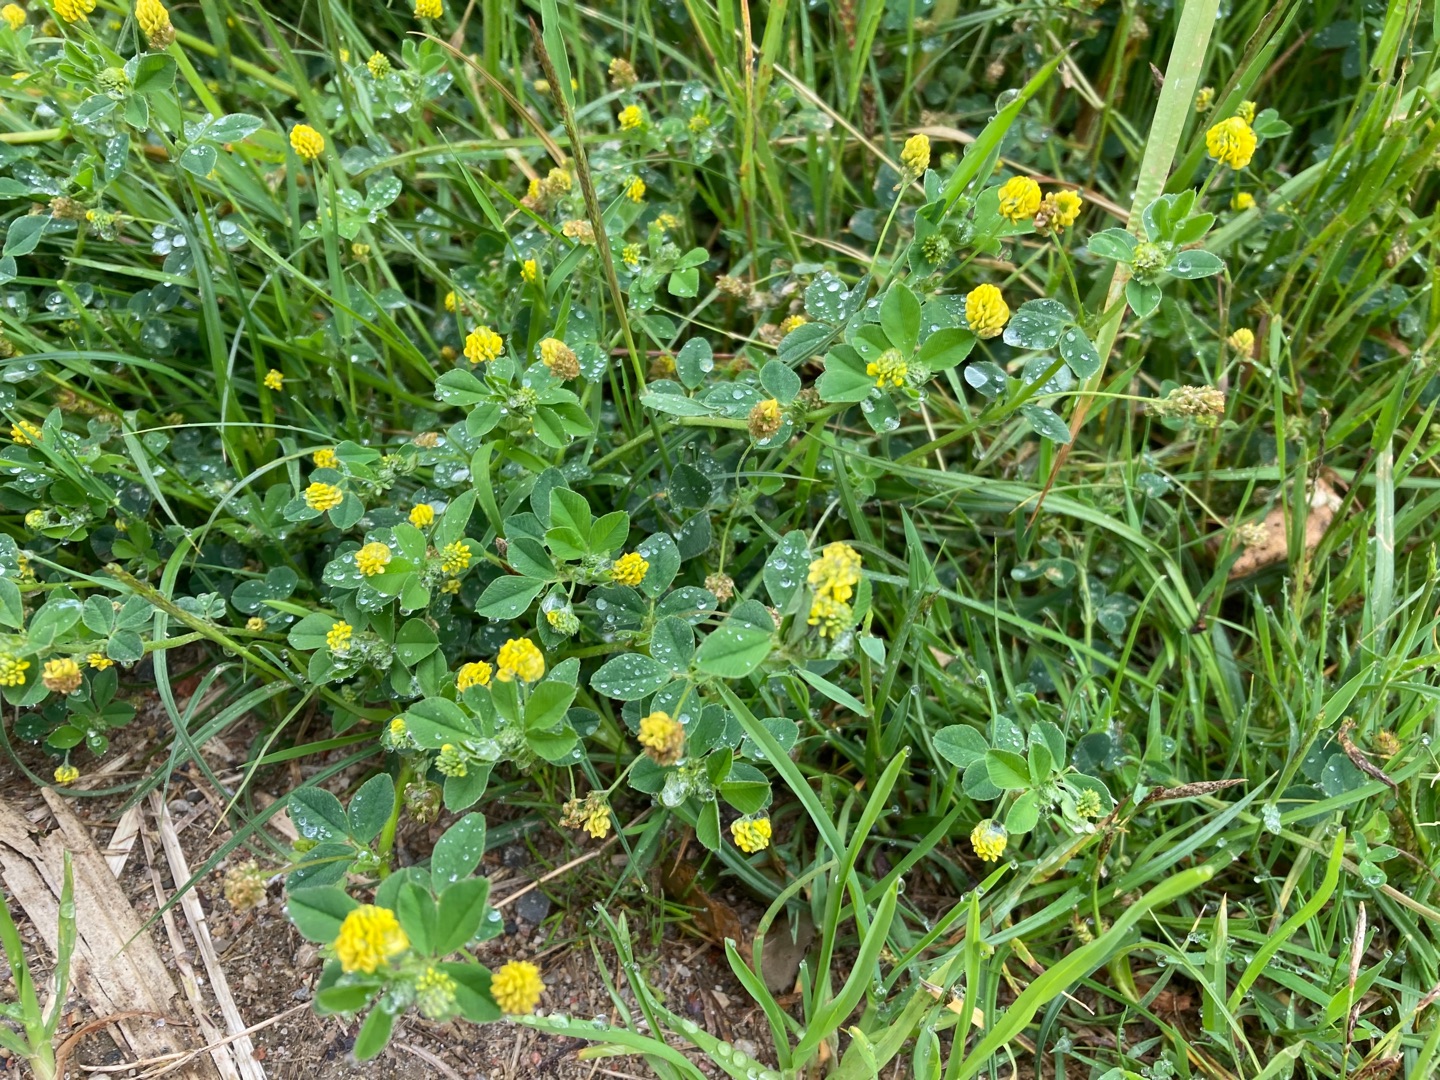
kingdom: Plantae
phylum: Tracheophyta
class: Magnoliopsida
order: Fabales
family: Fabaceae
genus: Medicago
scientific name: Medicago lupulina
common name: Humle-sneglebælg
